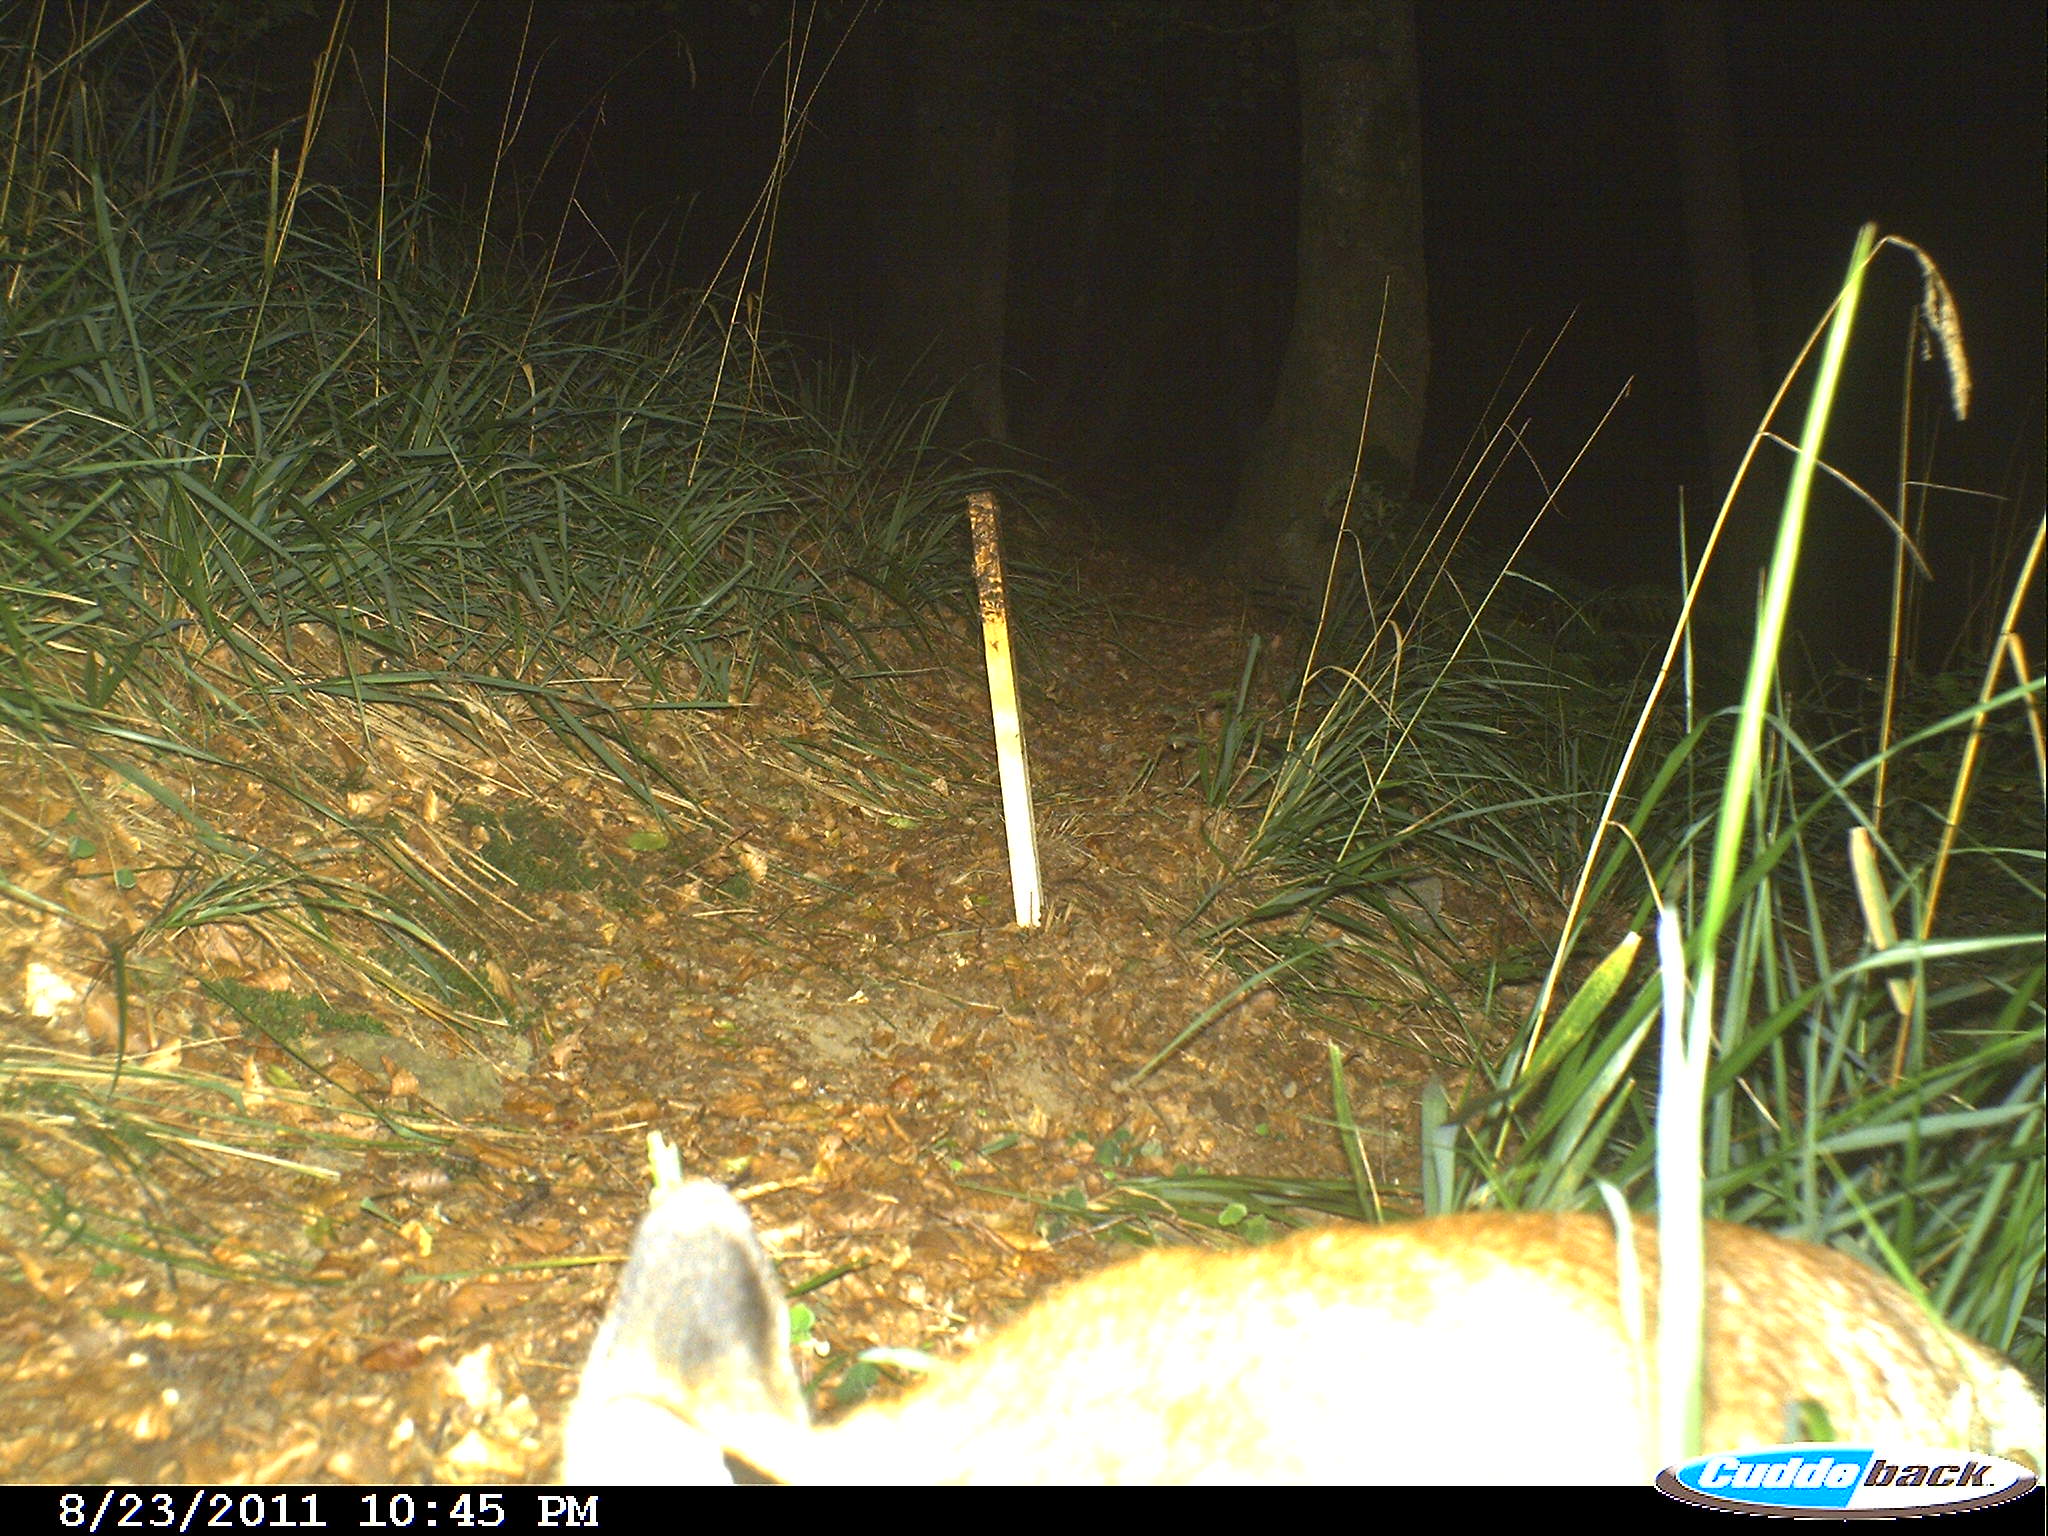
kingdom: Animalia
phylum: Chordata
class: Mammalia
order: Carnivora
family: Canidae
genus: Vulpes
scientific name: Vulpes vulpes
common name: Red fox
